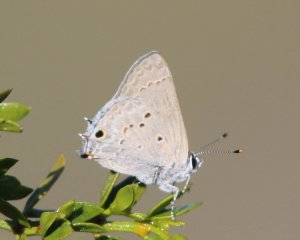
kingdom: Animalia
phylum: Arthropoda
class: Insecta
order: Lepidoptera
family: Lycaenidae
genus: Callicista
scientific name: Callicista columella
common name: Mallow Scrub-Hairstreak
